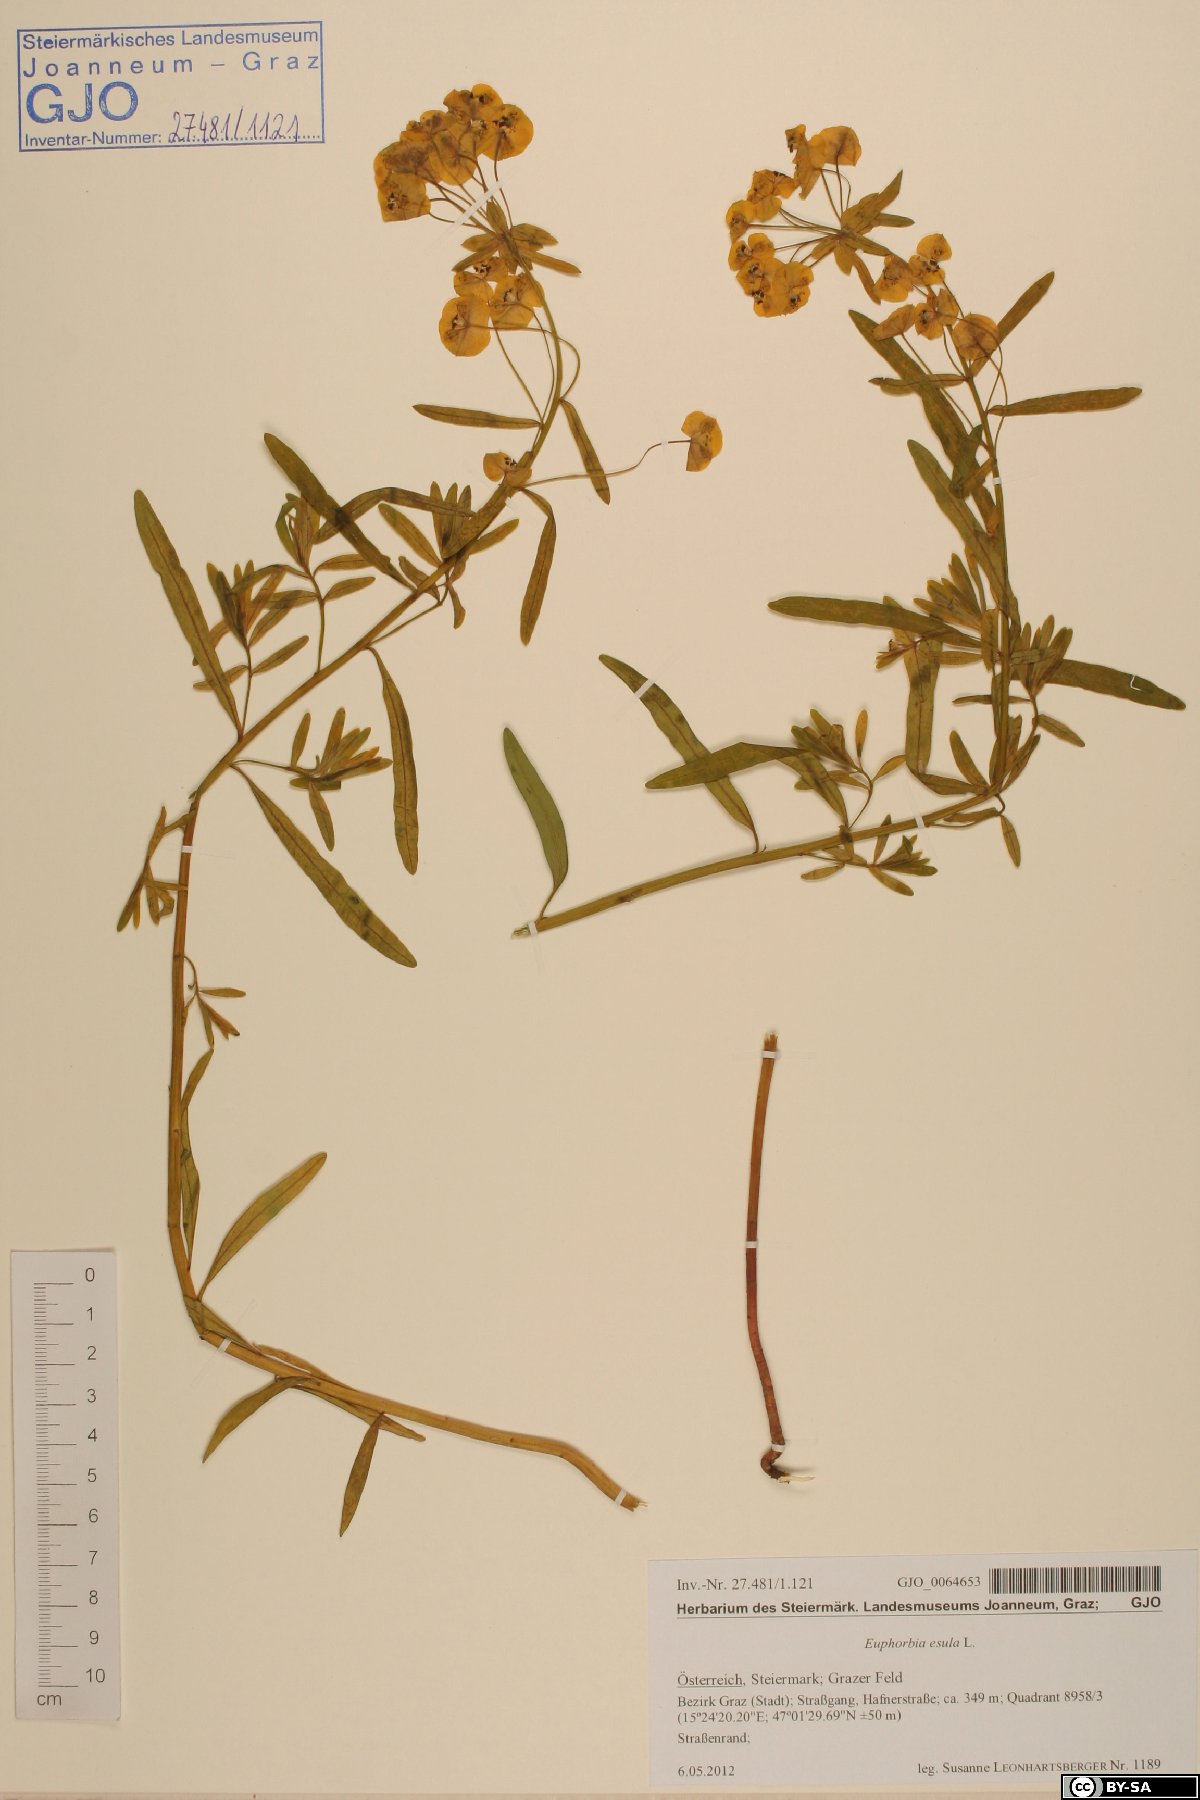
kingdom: Plantae
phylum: Tracheophyta
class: Magnoliopsida
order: Malpighiales
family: Euphorbiaceae
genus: Euphorbia
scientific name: Euphorbia esula
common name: Leafy spurge
